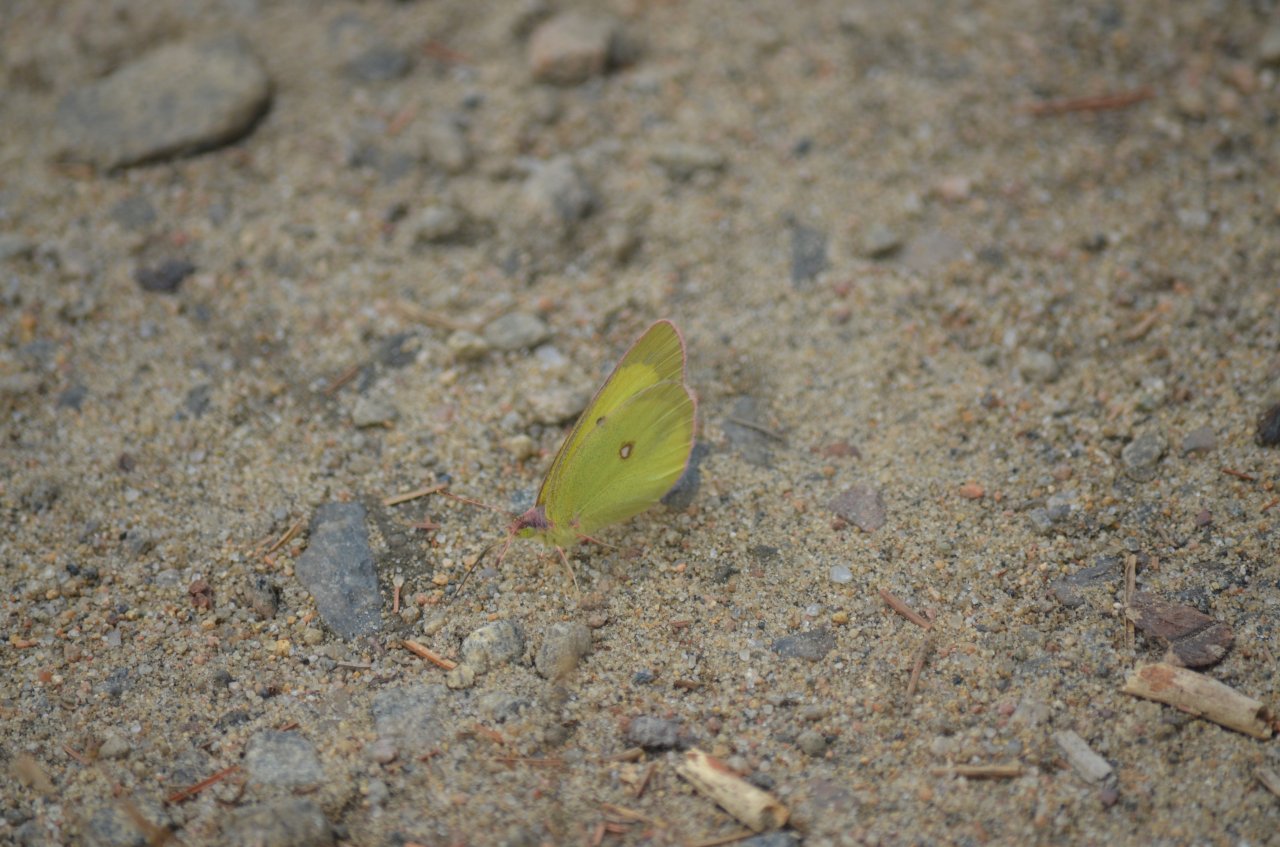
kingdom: Animalia
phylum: Arthropoda
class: Insecta
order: Lepidoptera
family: Pieridae
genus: Colias
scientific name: Colias interior
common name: Pink-edged Sulphur
